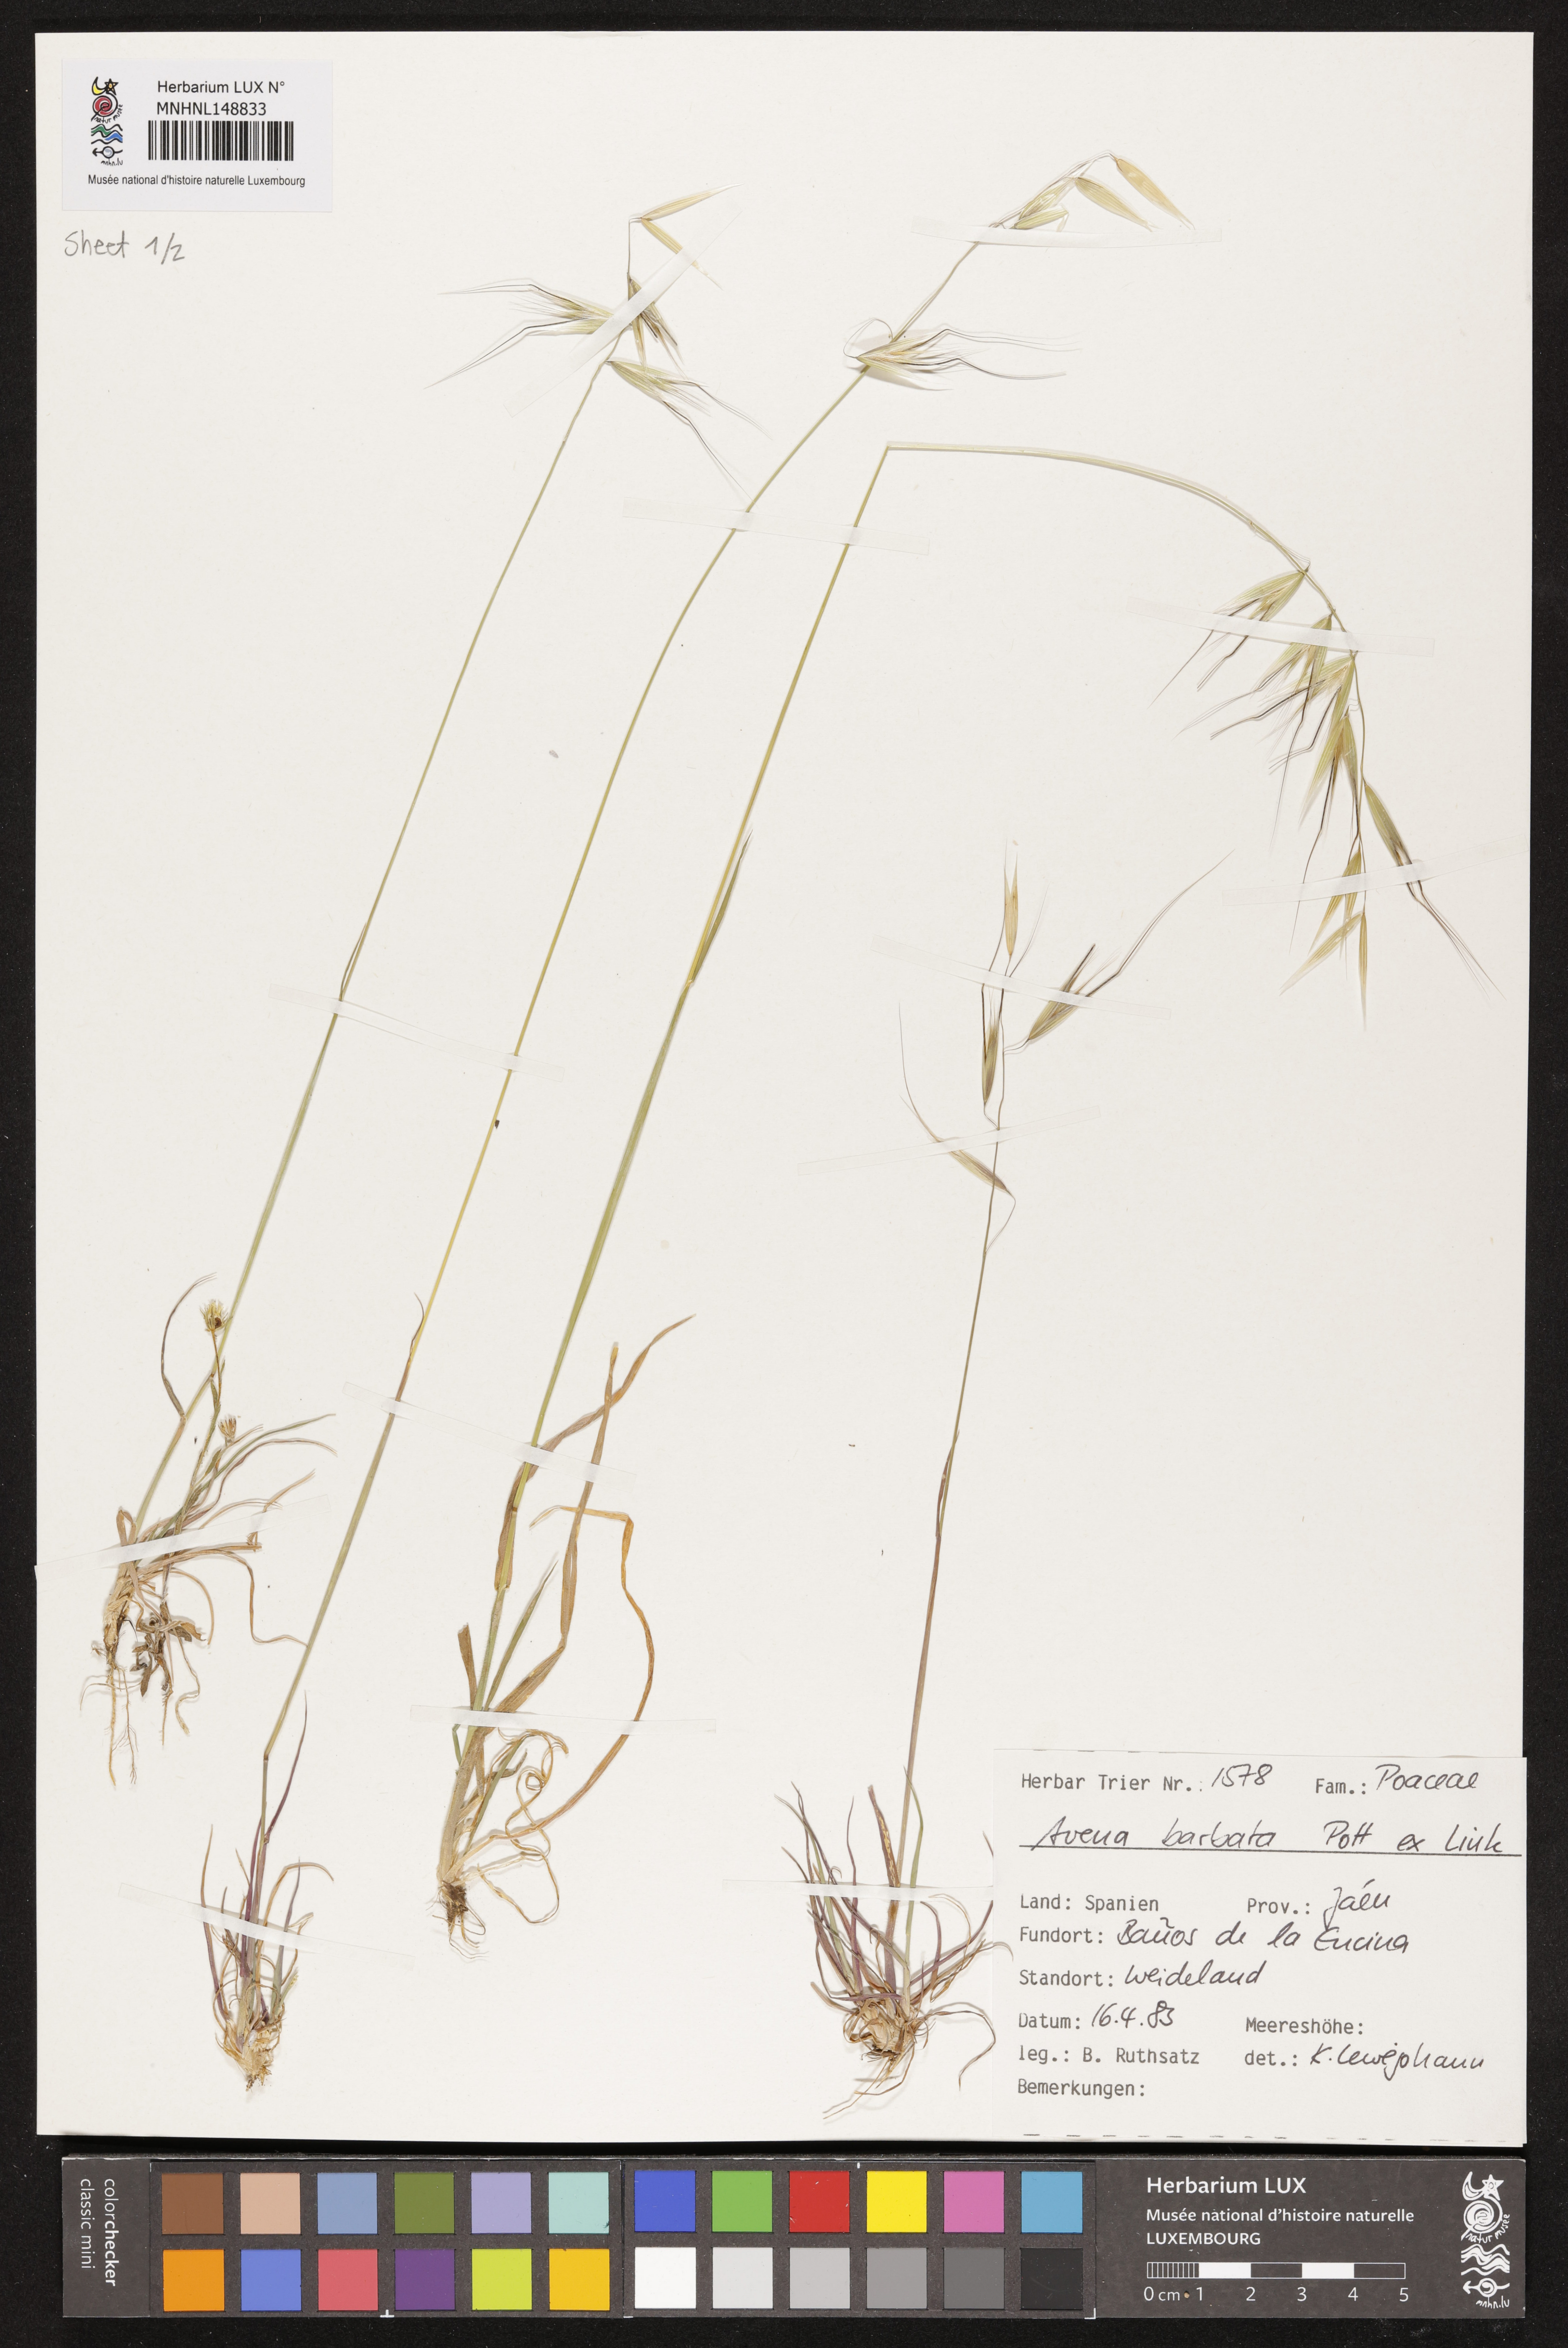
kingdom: Plantae
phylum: Tracheophyta
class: Liliopsida
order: Poales
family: Poaceae
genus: Avena
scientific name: Avena barbata
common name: Slender oat
